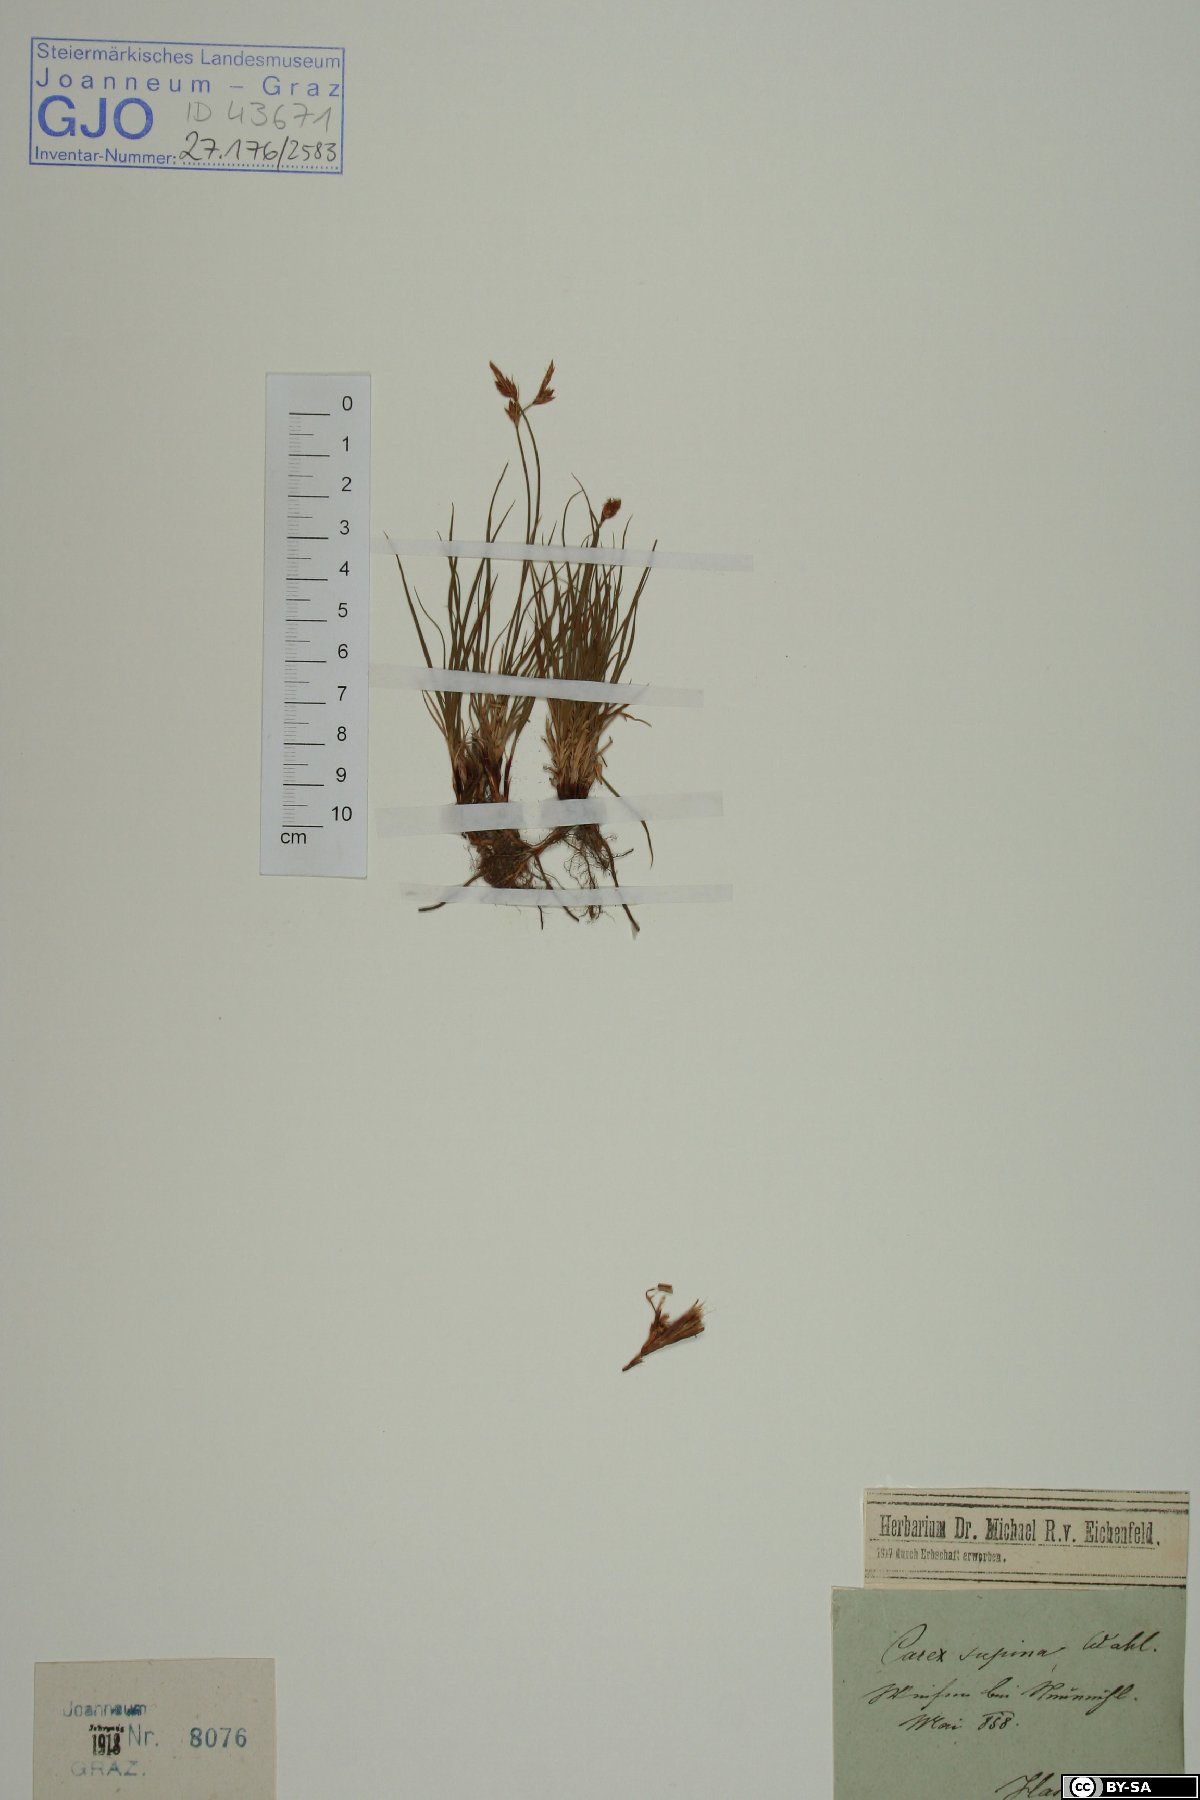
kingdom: Plantae
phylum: Tracheophyta
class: Liliopsida
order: Poales
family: Cyperaceae
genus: Carex
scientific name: Carex supina
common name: Lying-back sedge
